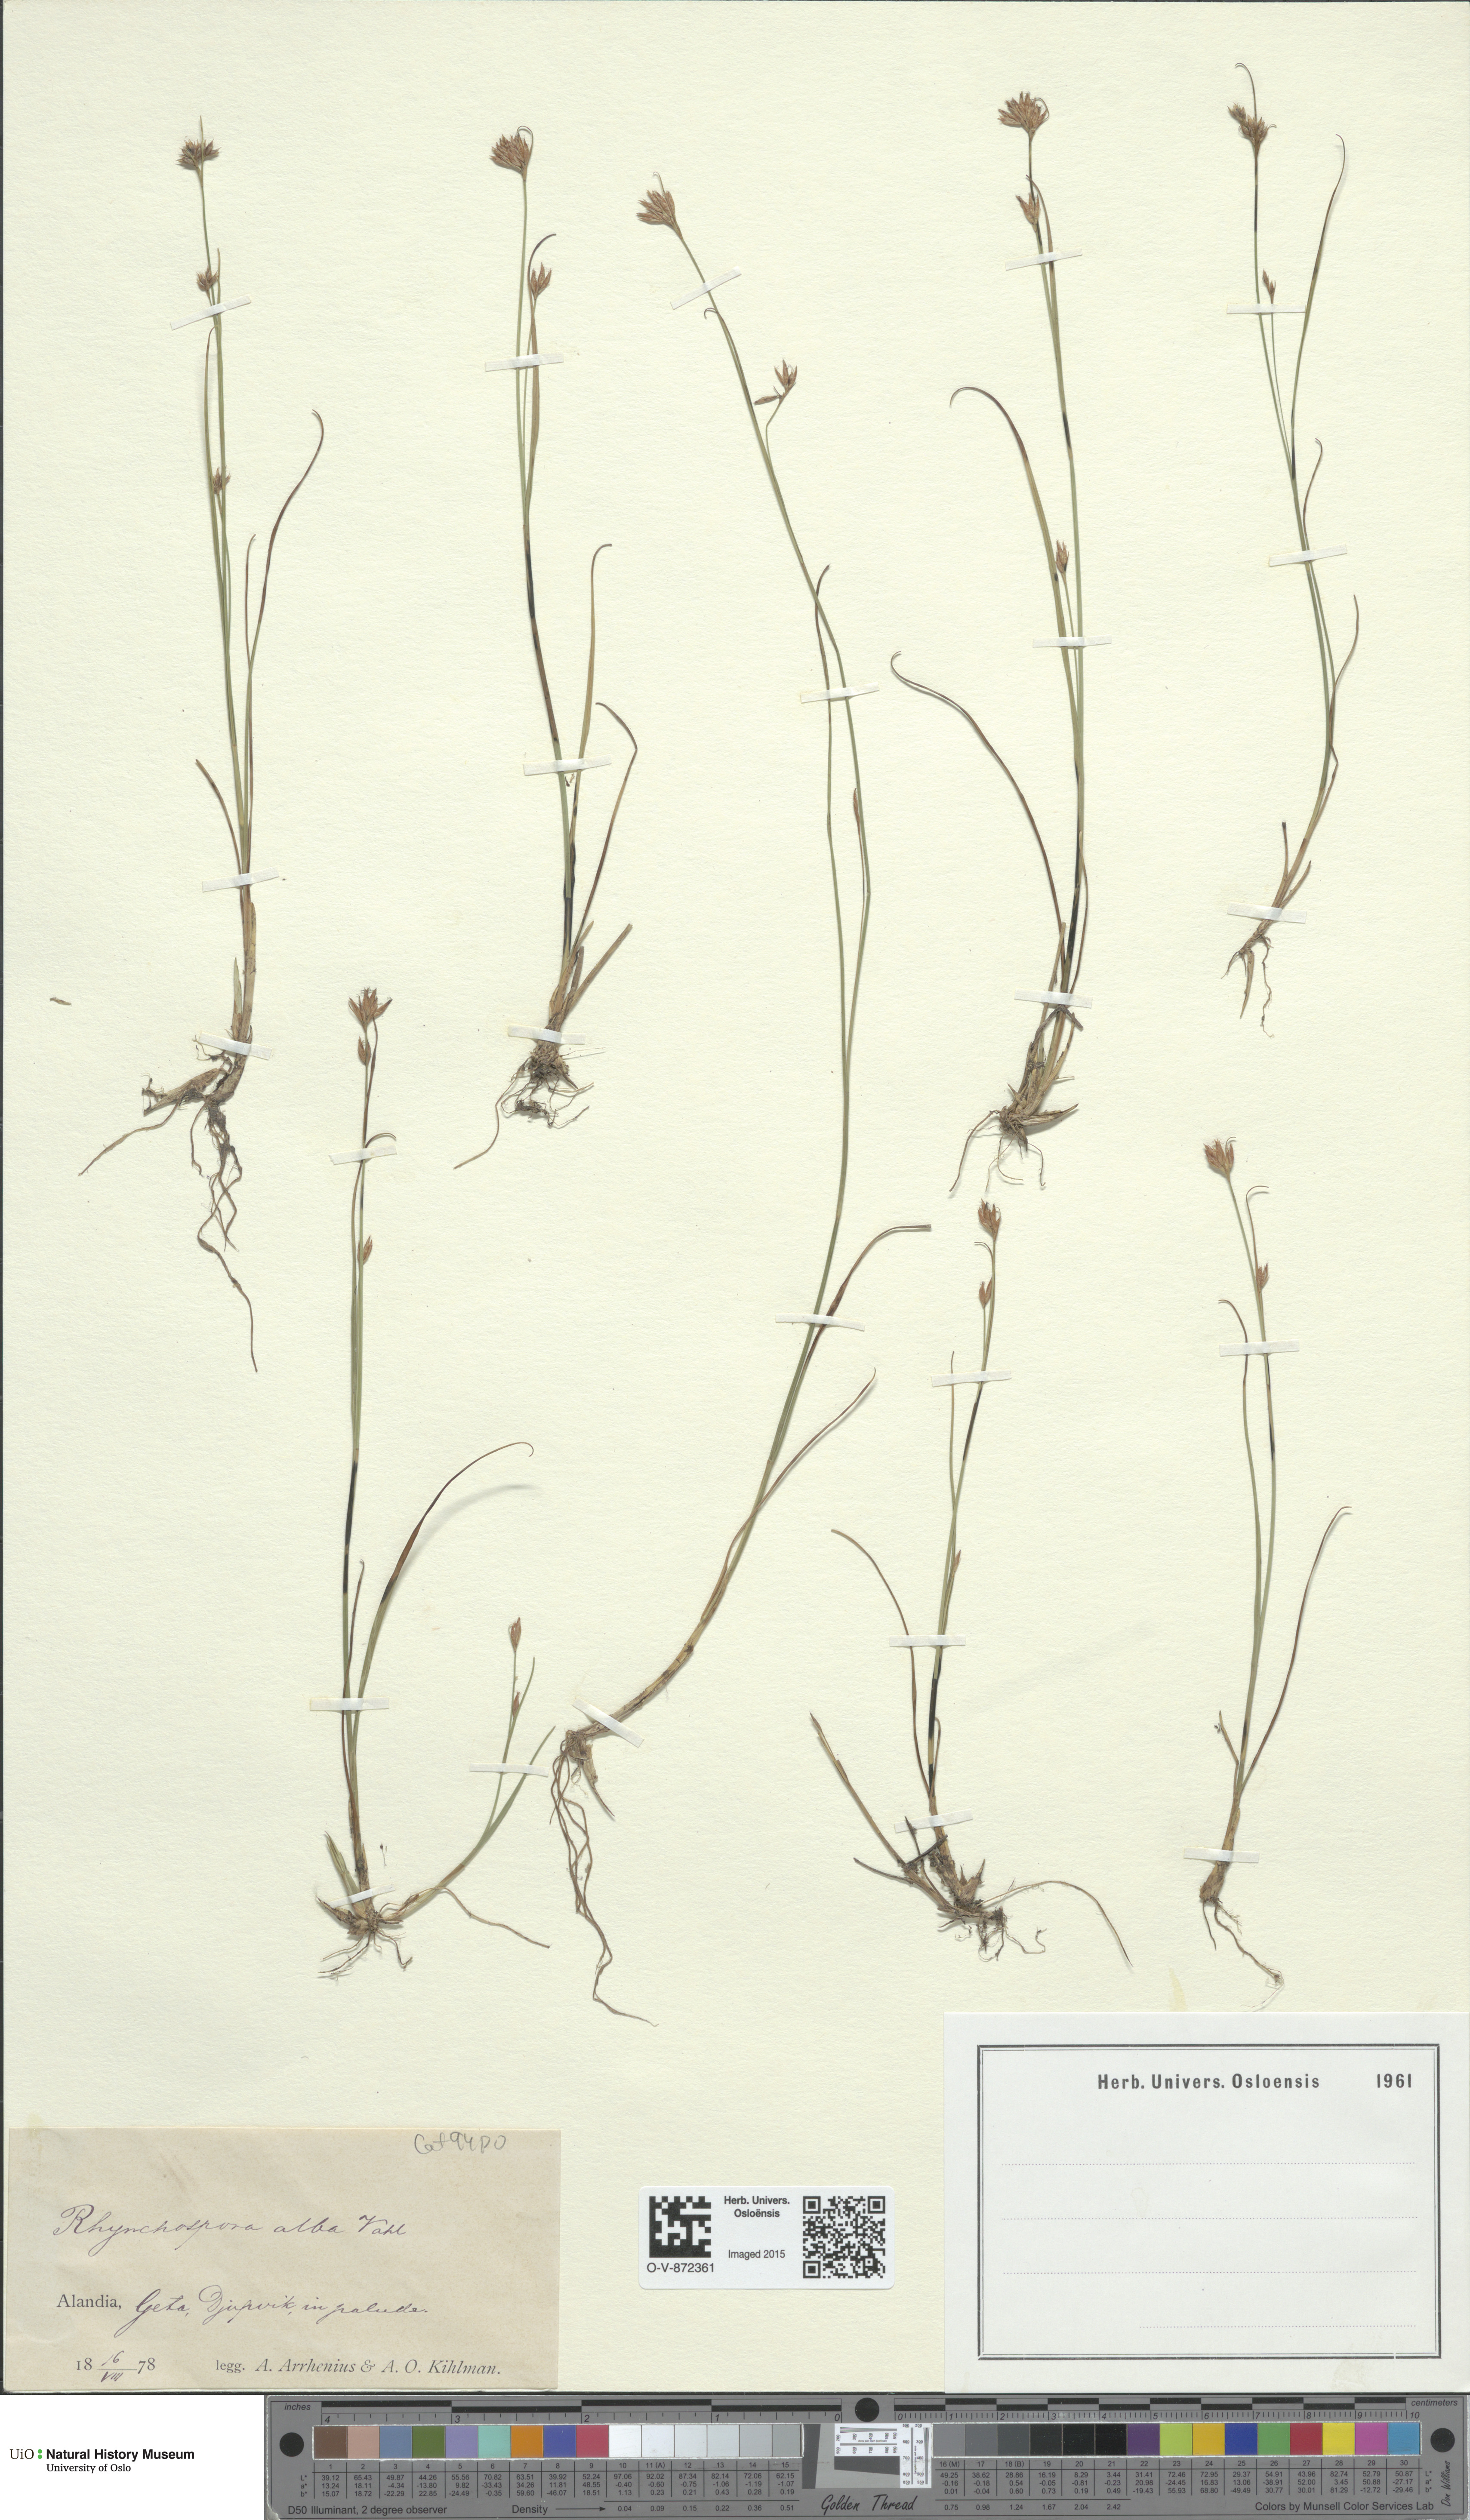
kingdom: Plantae
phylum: Tracheophyta
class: Liliopsida
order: Poales
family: Cyperaceae
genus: Rhynchospora
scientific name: Rhynchospora alba
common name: White beak-sedge
